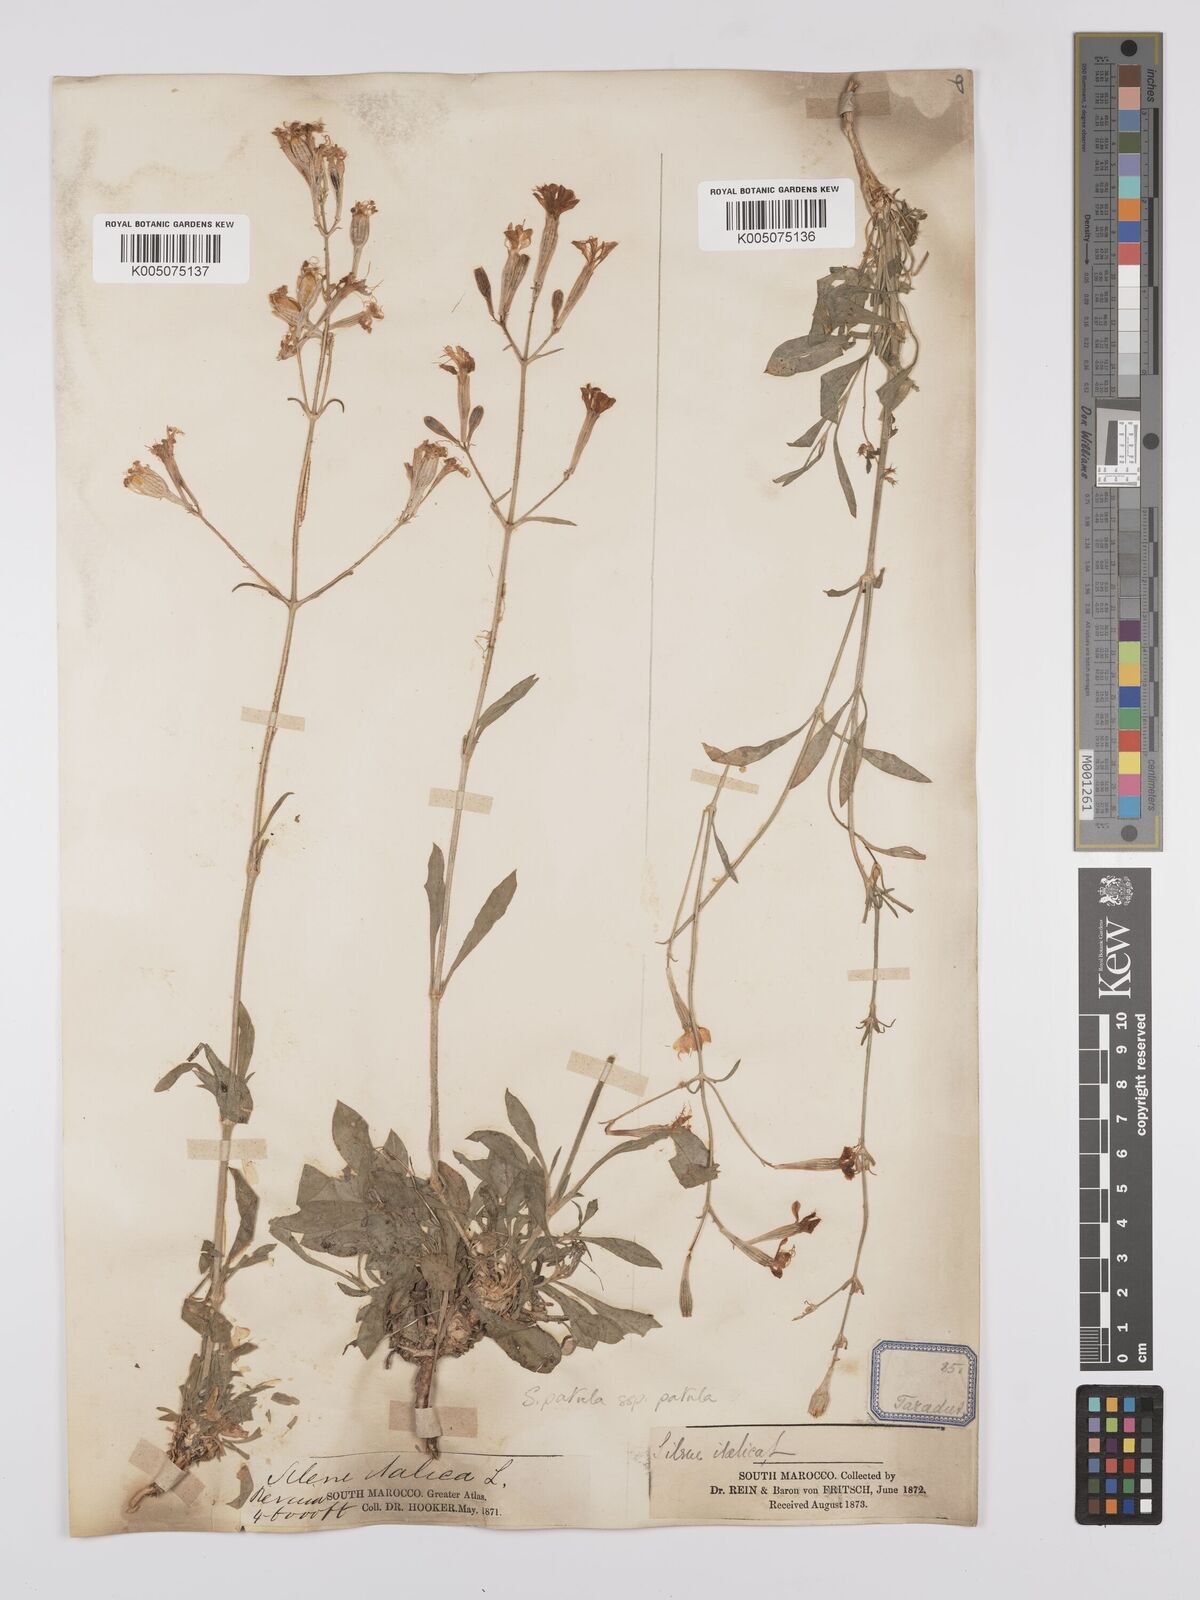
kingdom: Plantae
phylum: Tracheophyta
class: Magnoliopsida
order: Caryophyllales
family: Caryophyllaceae
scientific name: Caryophyllaceae
